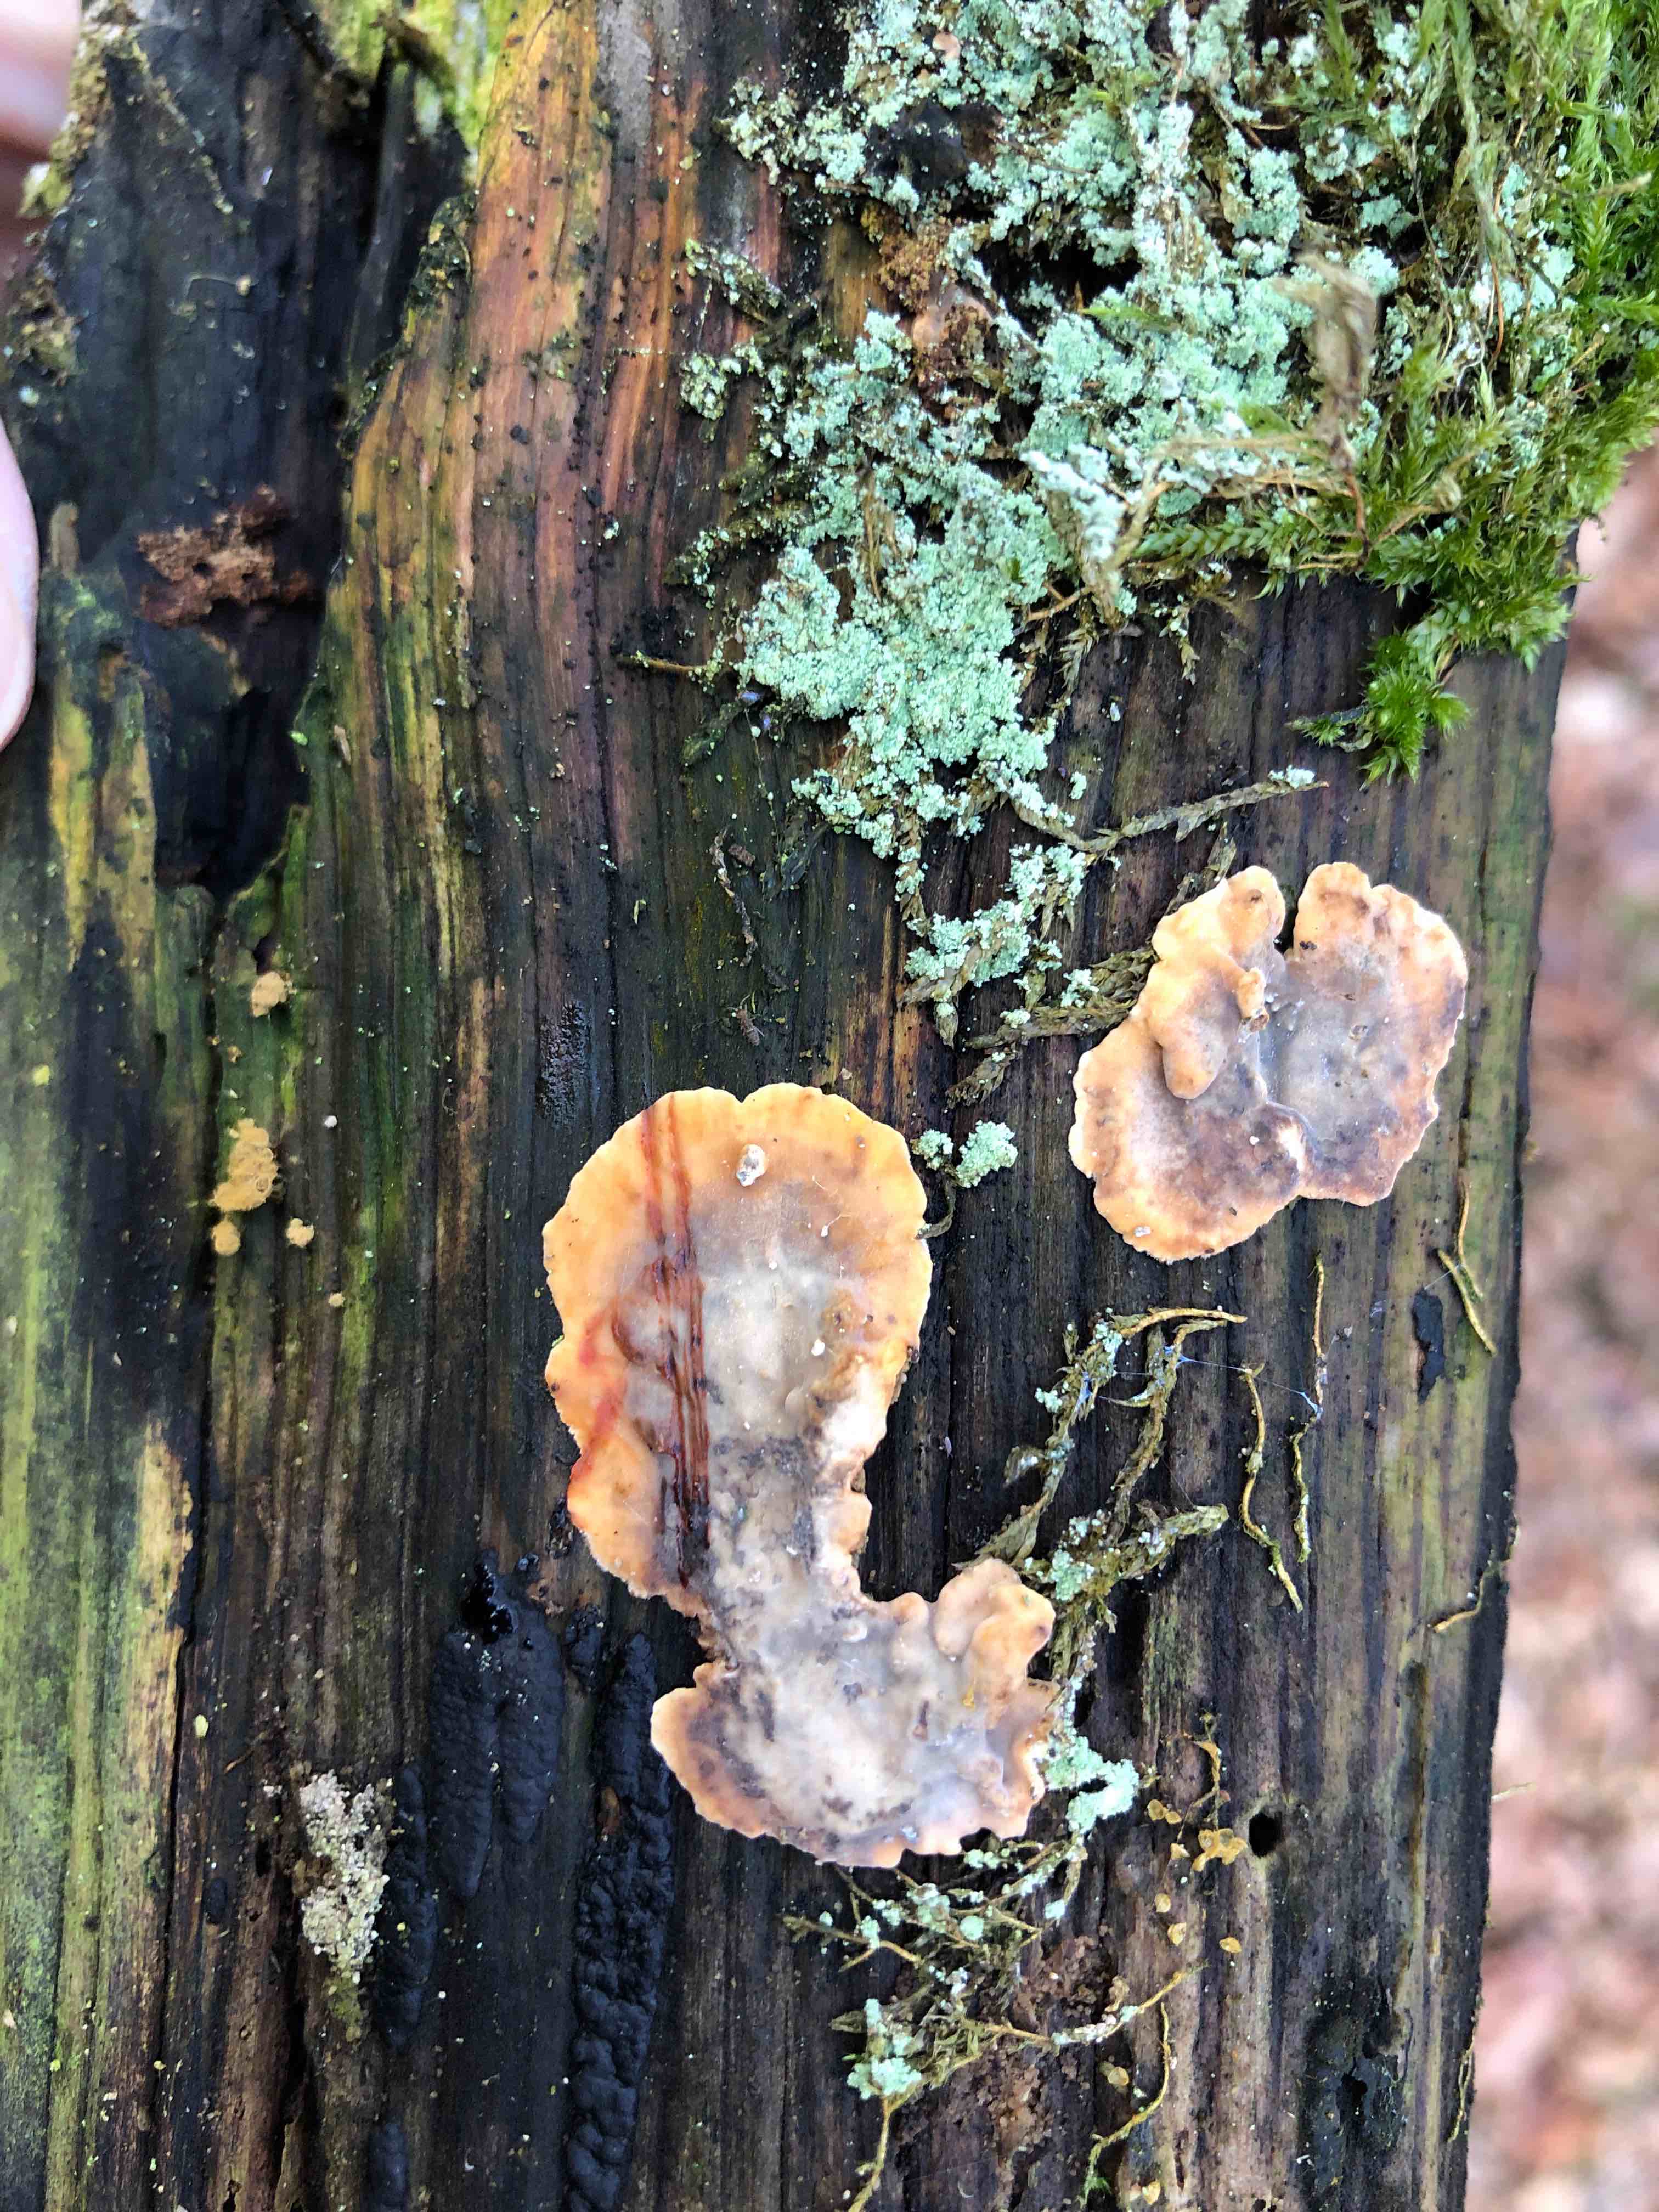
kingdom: Fungi
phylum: Basidiomycota
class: Agaricomycetes
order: Russulales
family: Stereaceae
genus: Stereum
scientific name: Stereum gausapatum
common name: tynd lædersvamp
